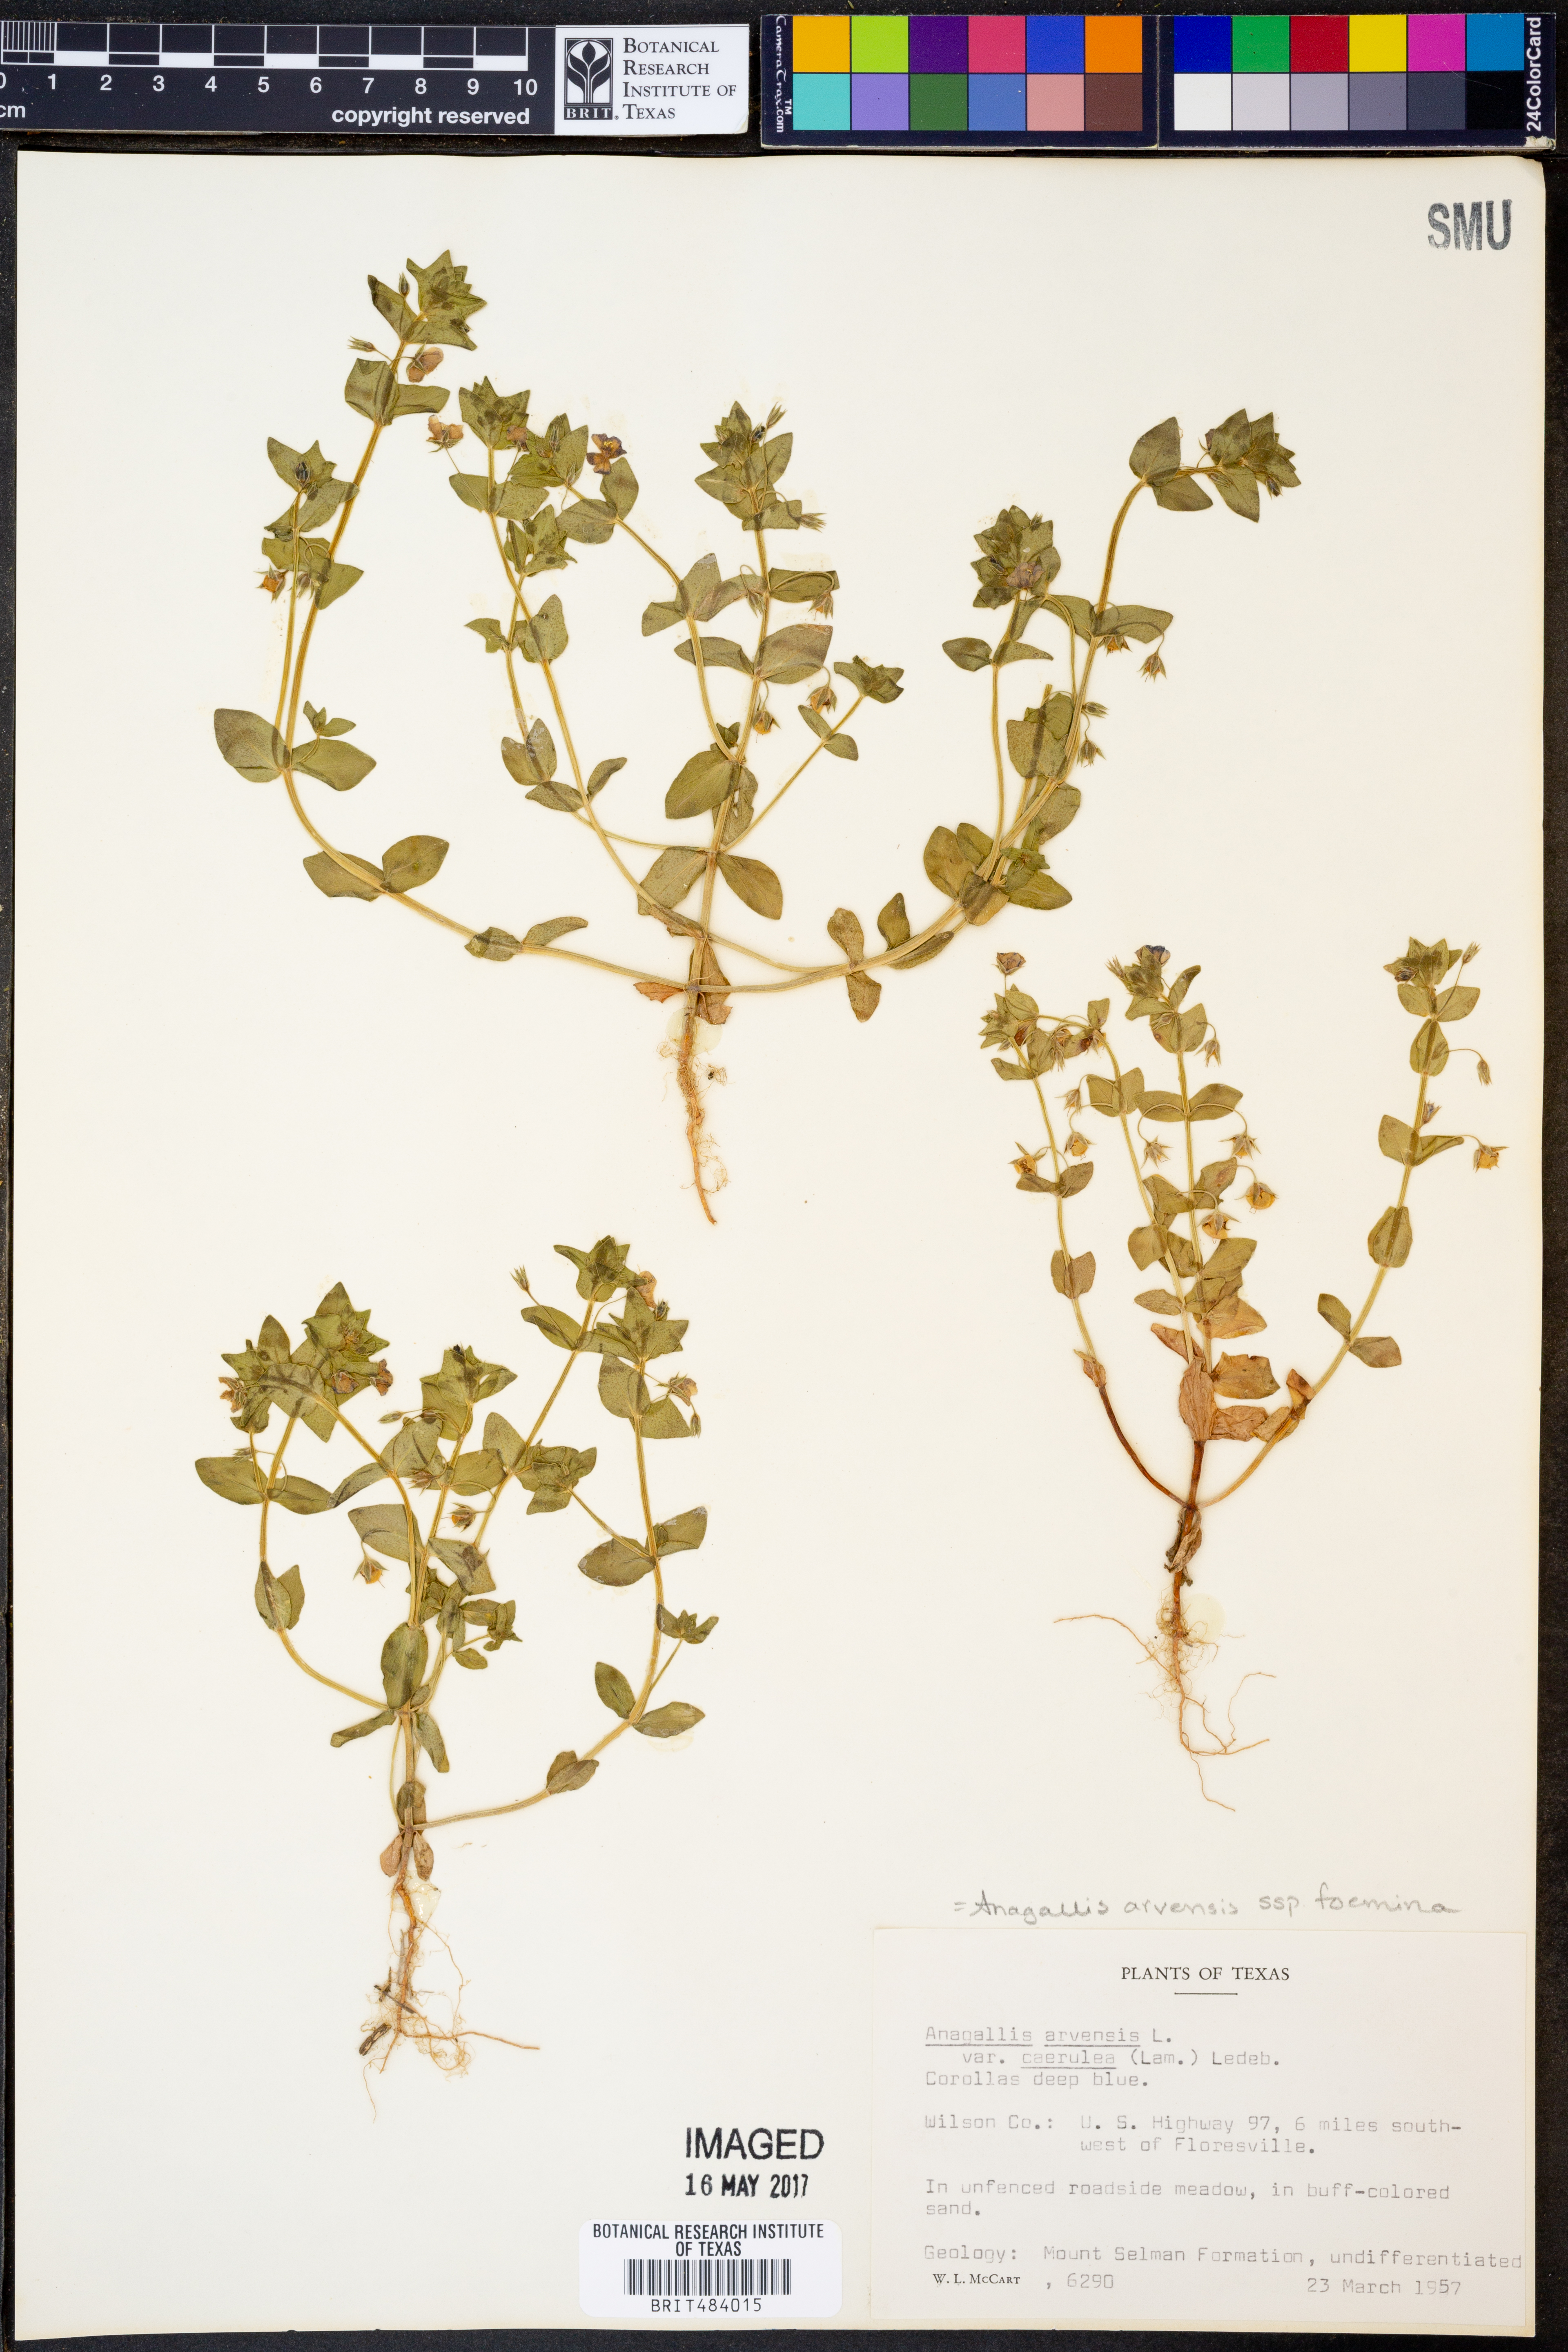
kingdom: Plantae
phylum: Tracheophyta
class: Magnoliopsida
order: Ericales
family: Primulaceae
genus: Lysimachia
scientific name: Lysimachia arvensis
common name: Scarlet pimpernel
